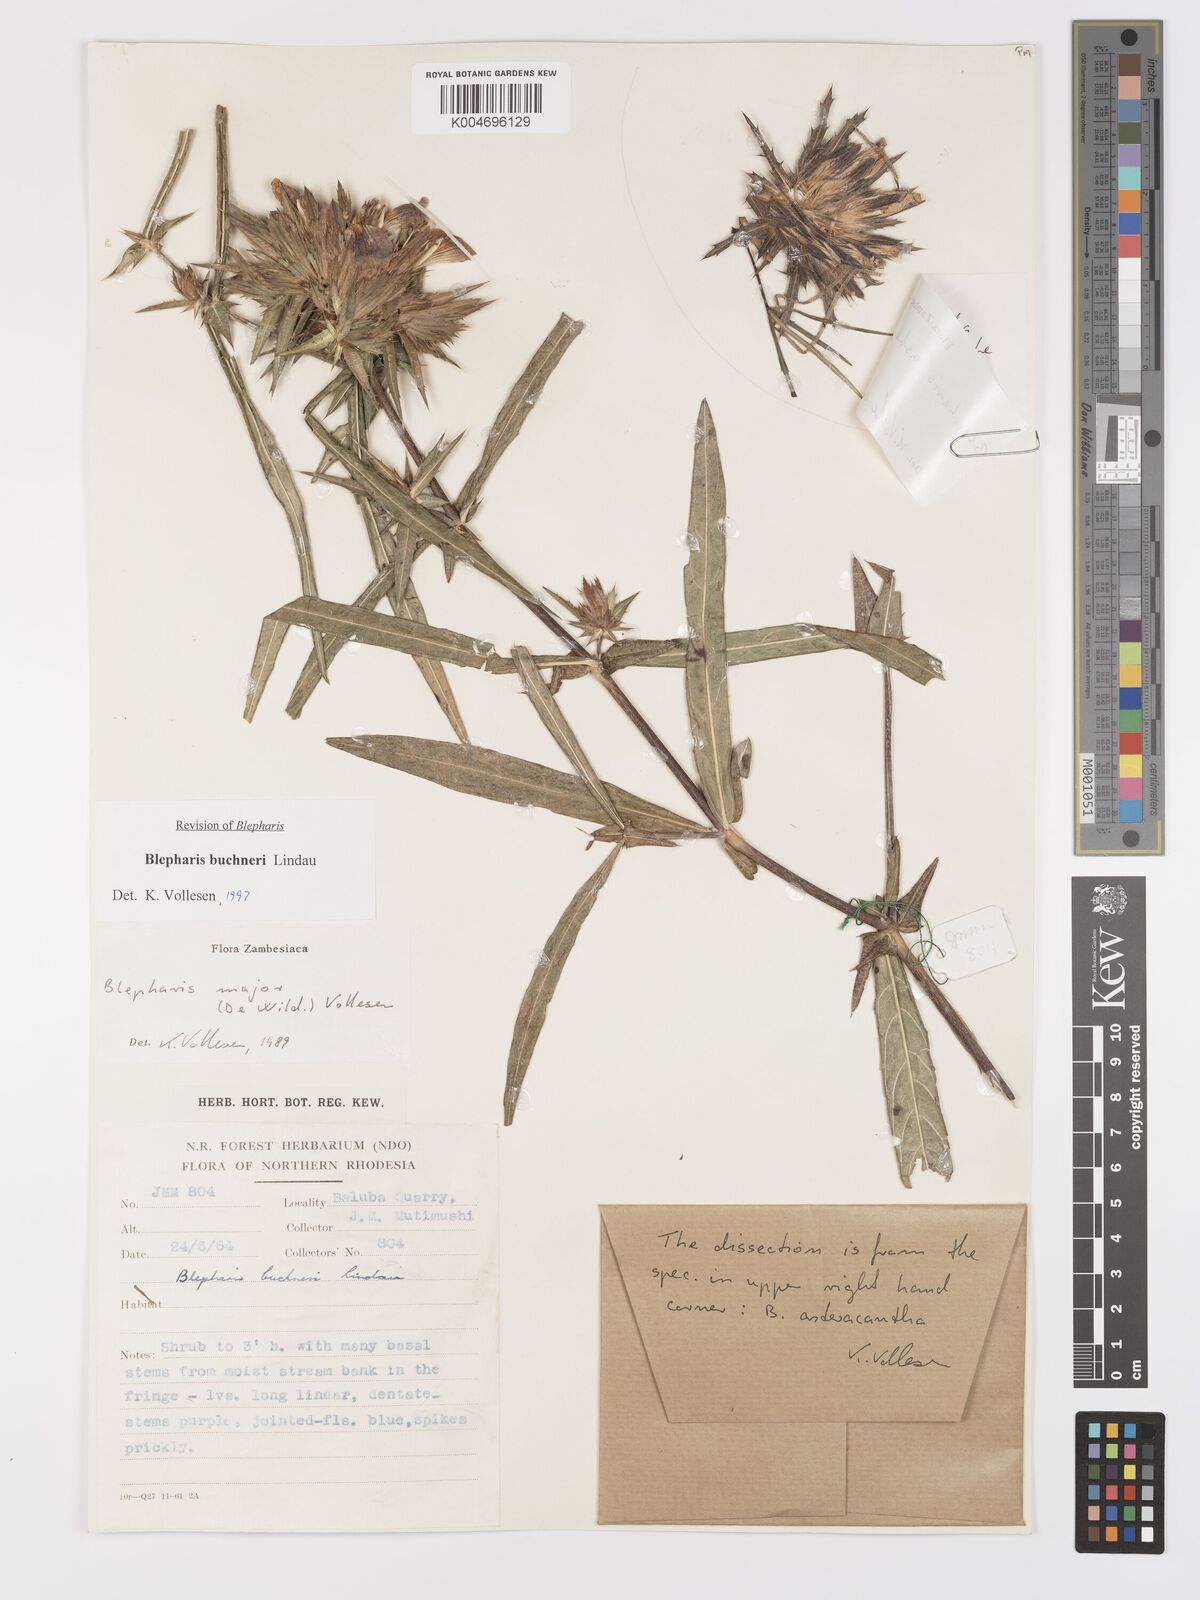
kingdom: Plantae
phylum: Tracheophyta
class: Magnoliopsida
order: Lamiales
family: Acanthaceae
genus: Blepharis
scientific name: Blepharis buchneri
